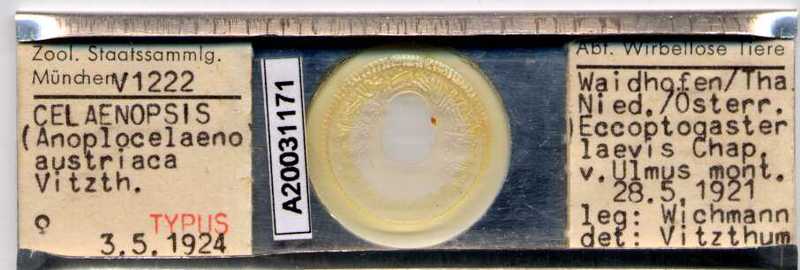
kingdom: Animalia
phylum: Arthropoda
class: Arachnida
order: Mesostigmata
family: Celaenopsidae
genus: Celaenopsis
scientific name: Celaenopsis
